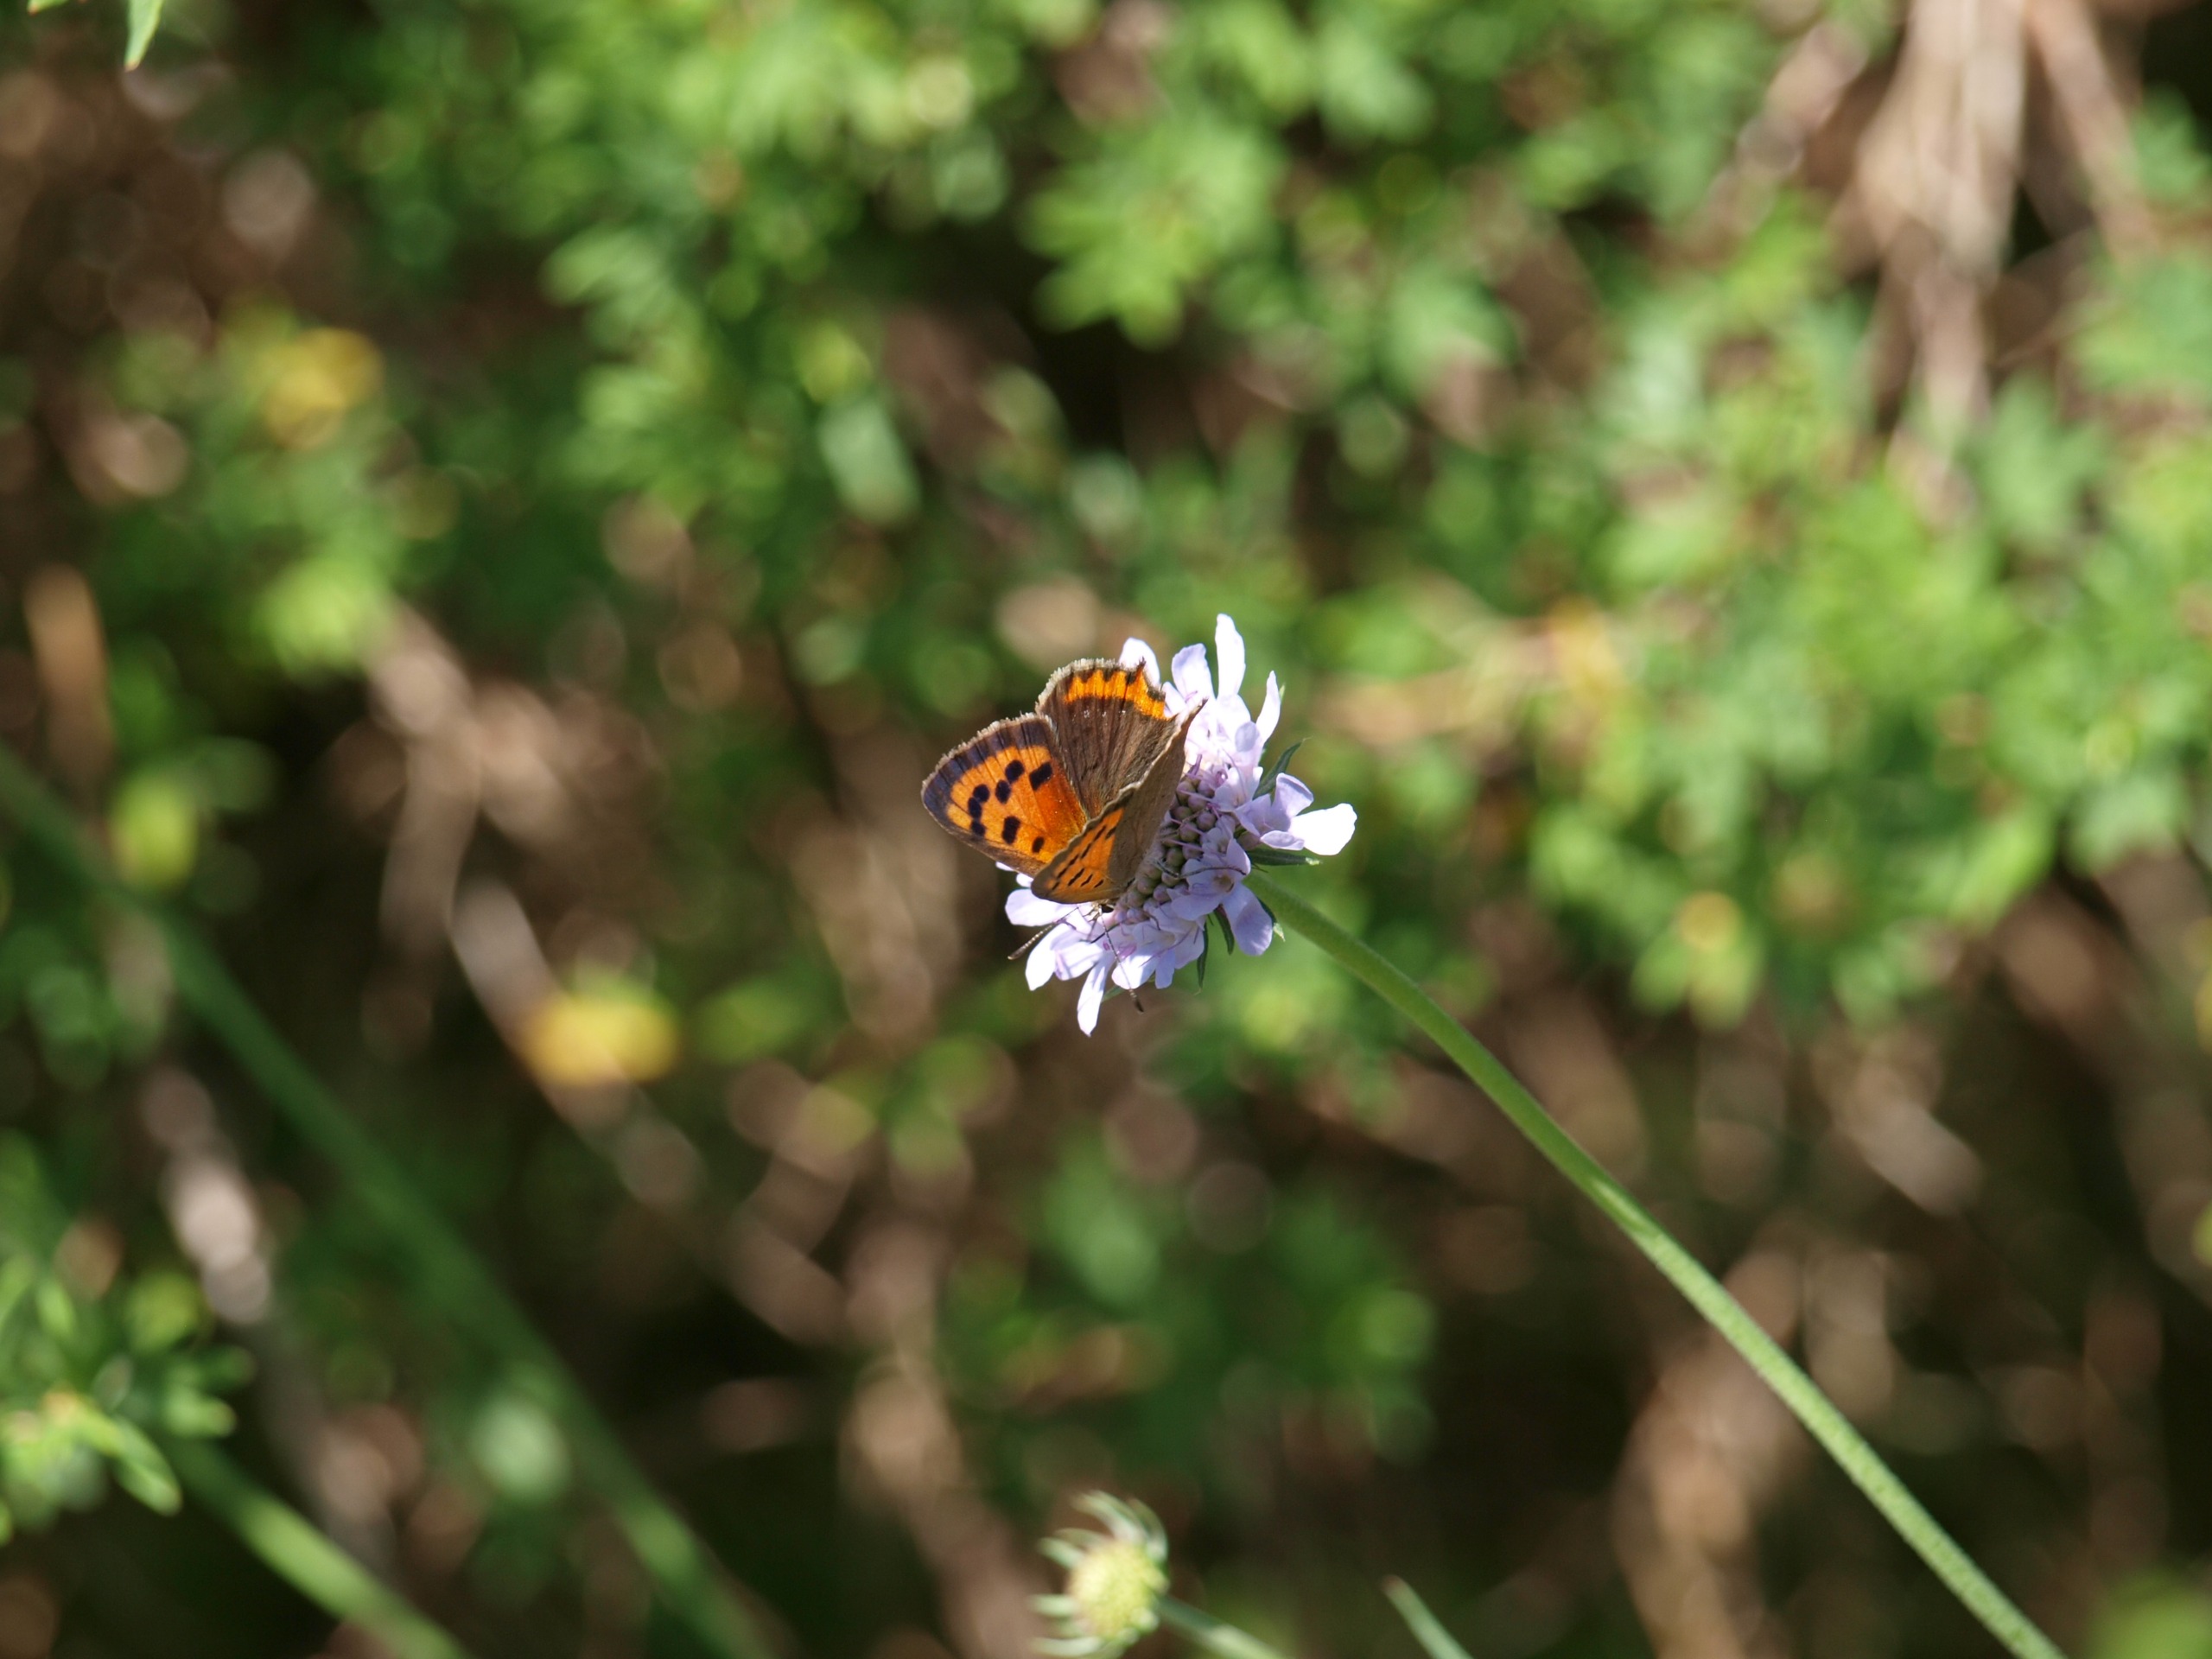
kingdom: Animalia
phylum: Arthropoda
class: Insecta
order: Lepidoptera
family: Lycaenidae
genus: Lycaena
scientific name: Lycaena phlaeas
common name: Lille ildfugl
